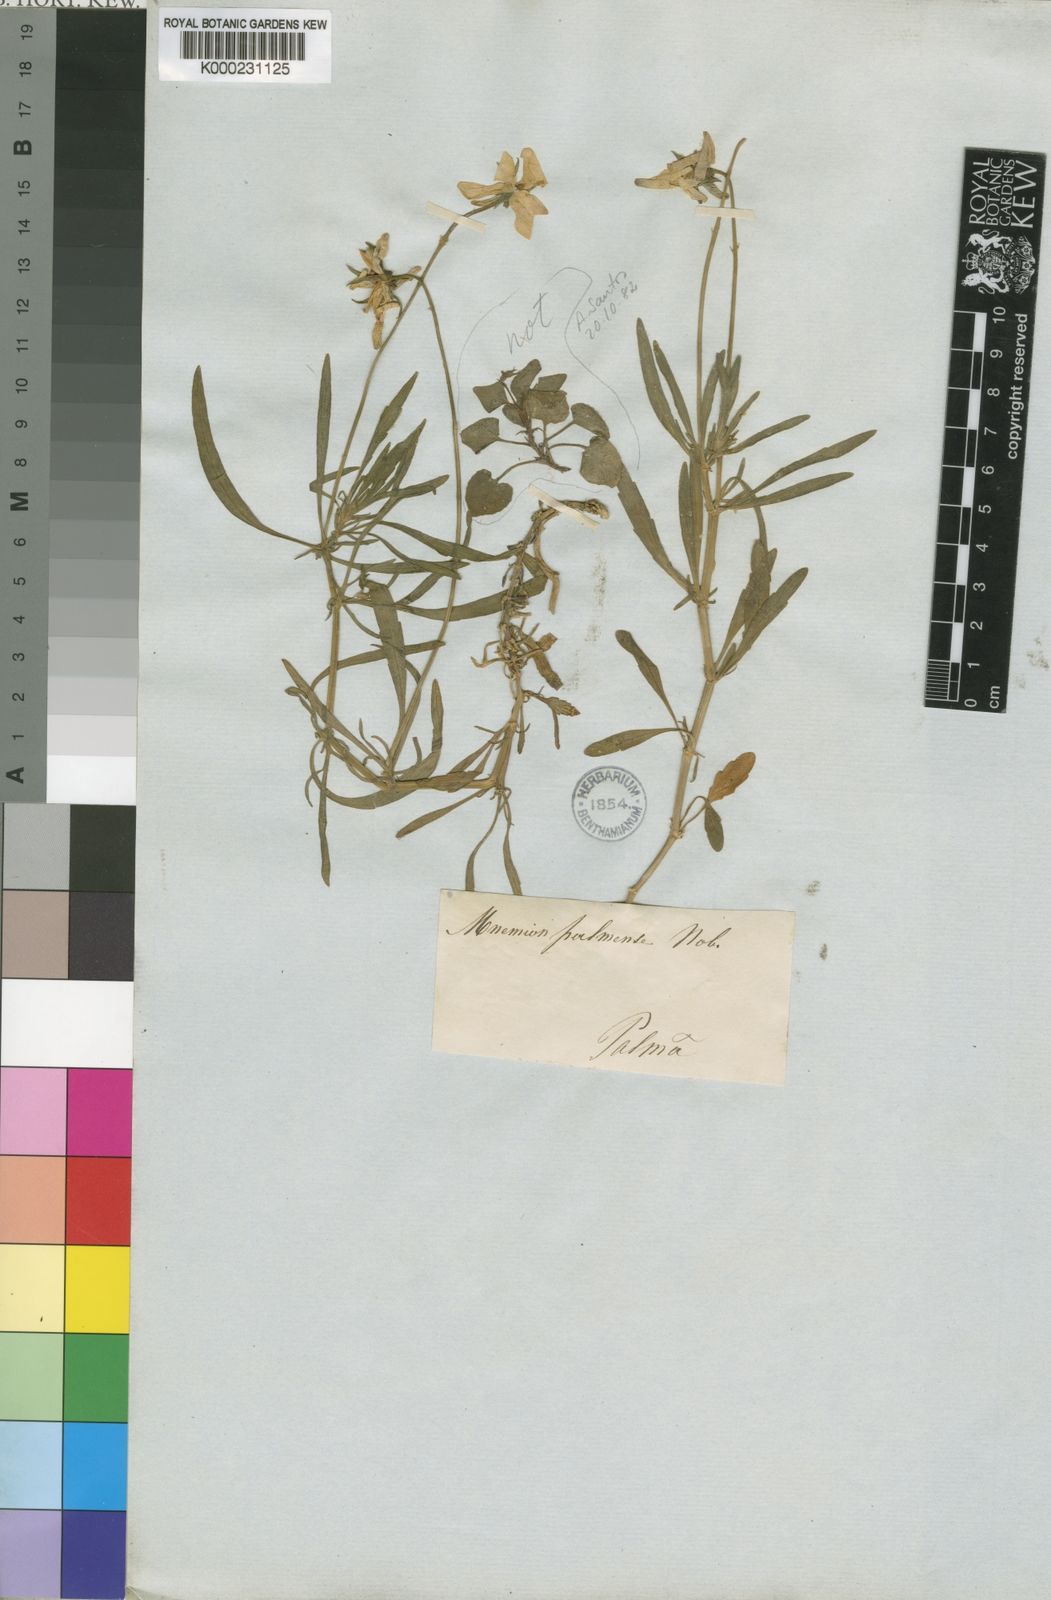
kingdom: Plantae
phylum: Tracheophyta
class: Magnoliopsida
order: Malpighiales
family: Violaceae
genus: Viola
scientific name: Viola palmensis
